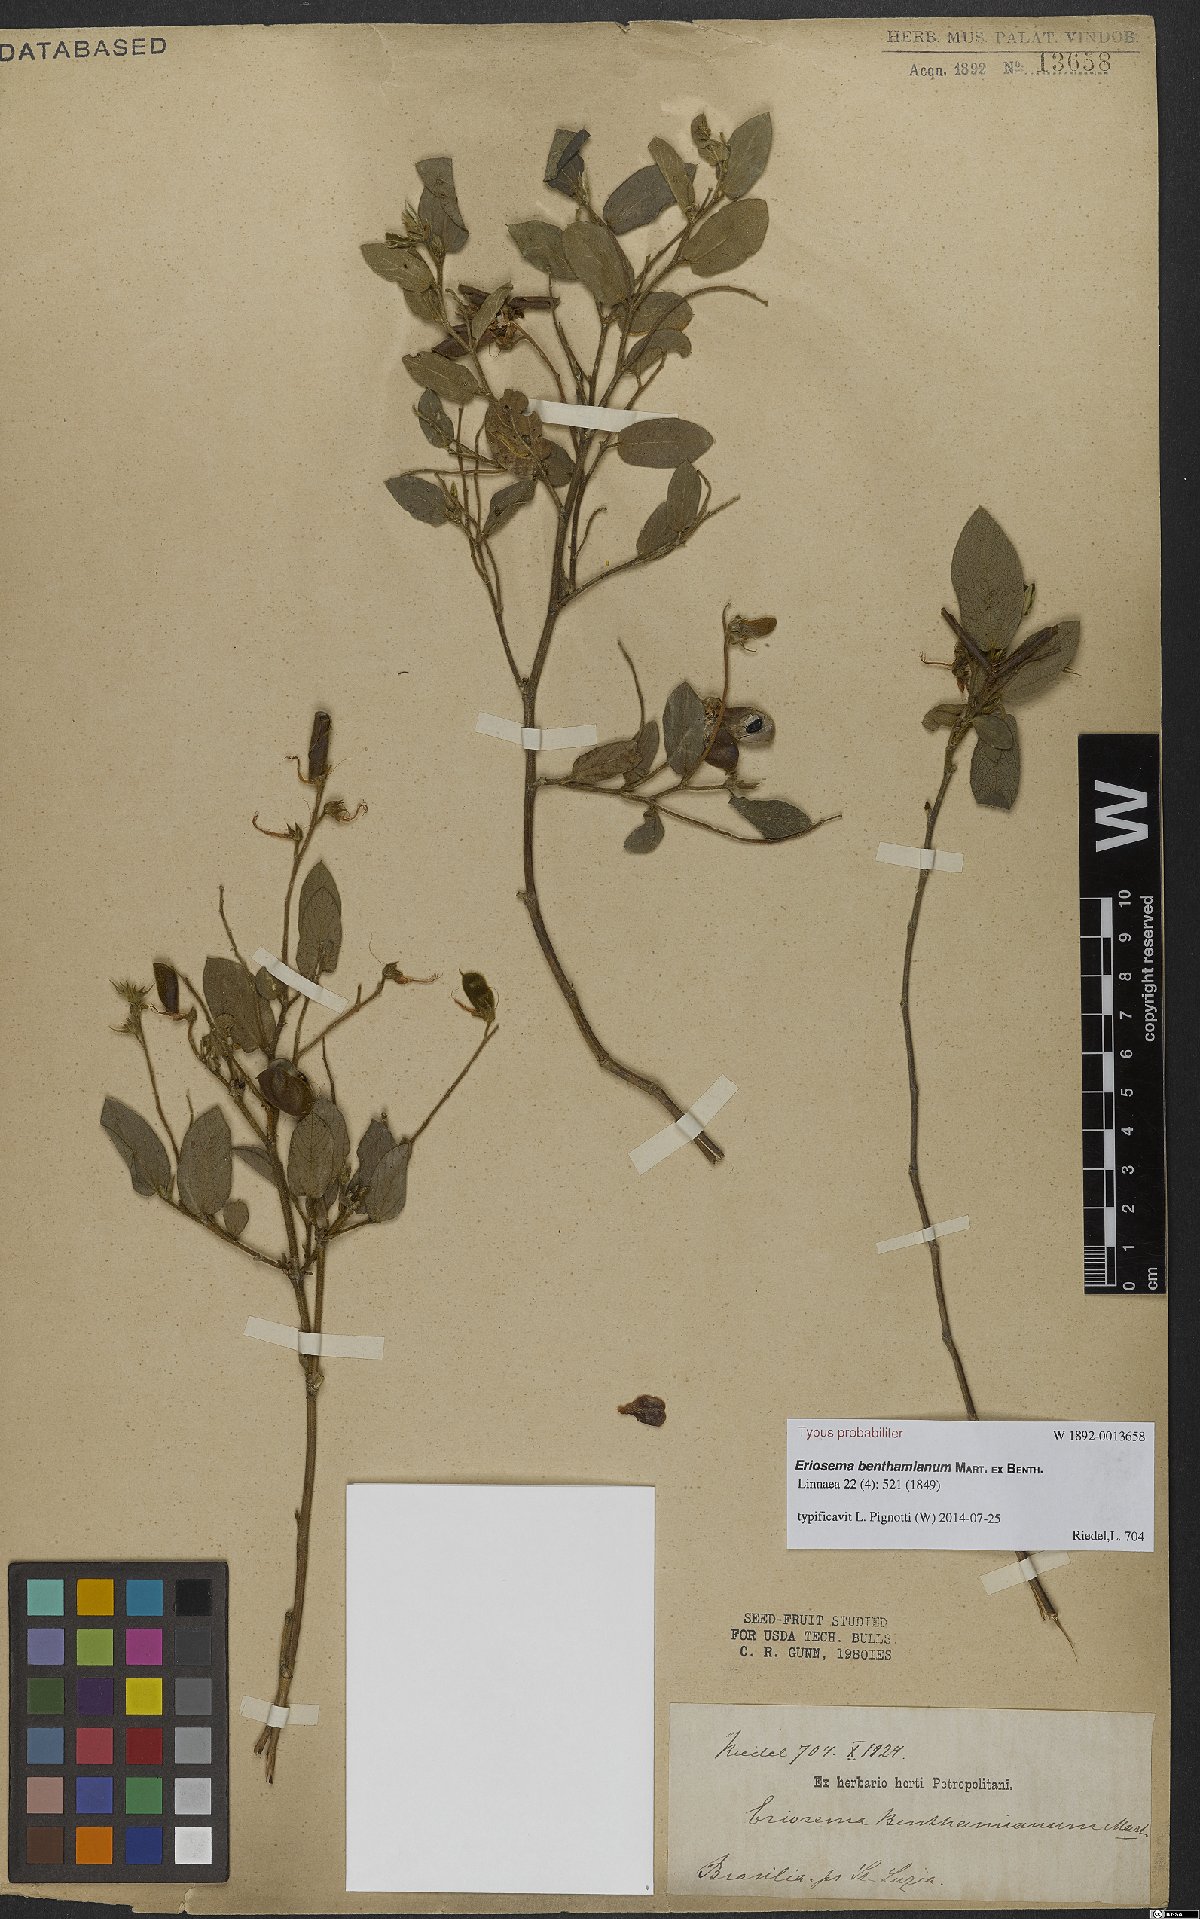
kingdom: Plantae
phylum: Tracheophyta
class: Magnoliopsida
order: Fabales
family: Fabaceae
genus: Eriosema
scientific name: Eriosema benthamianum
